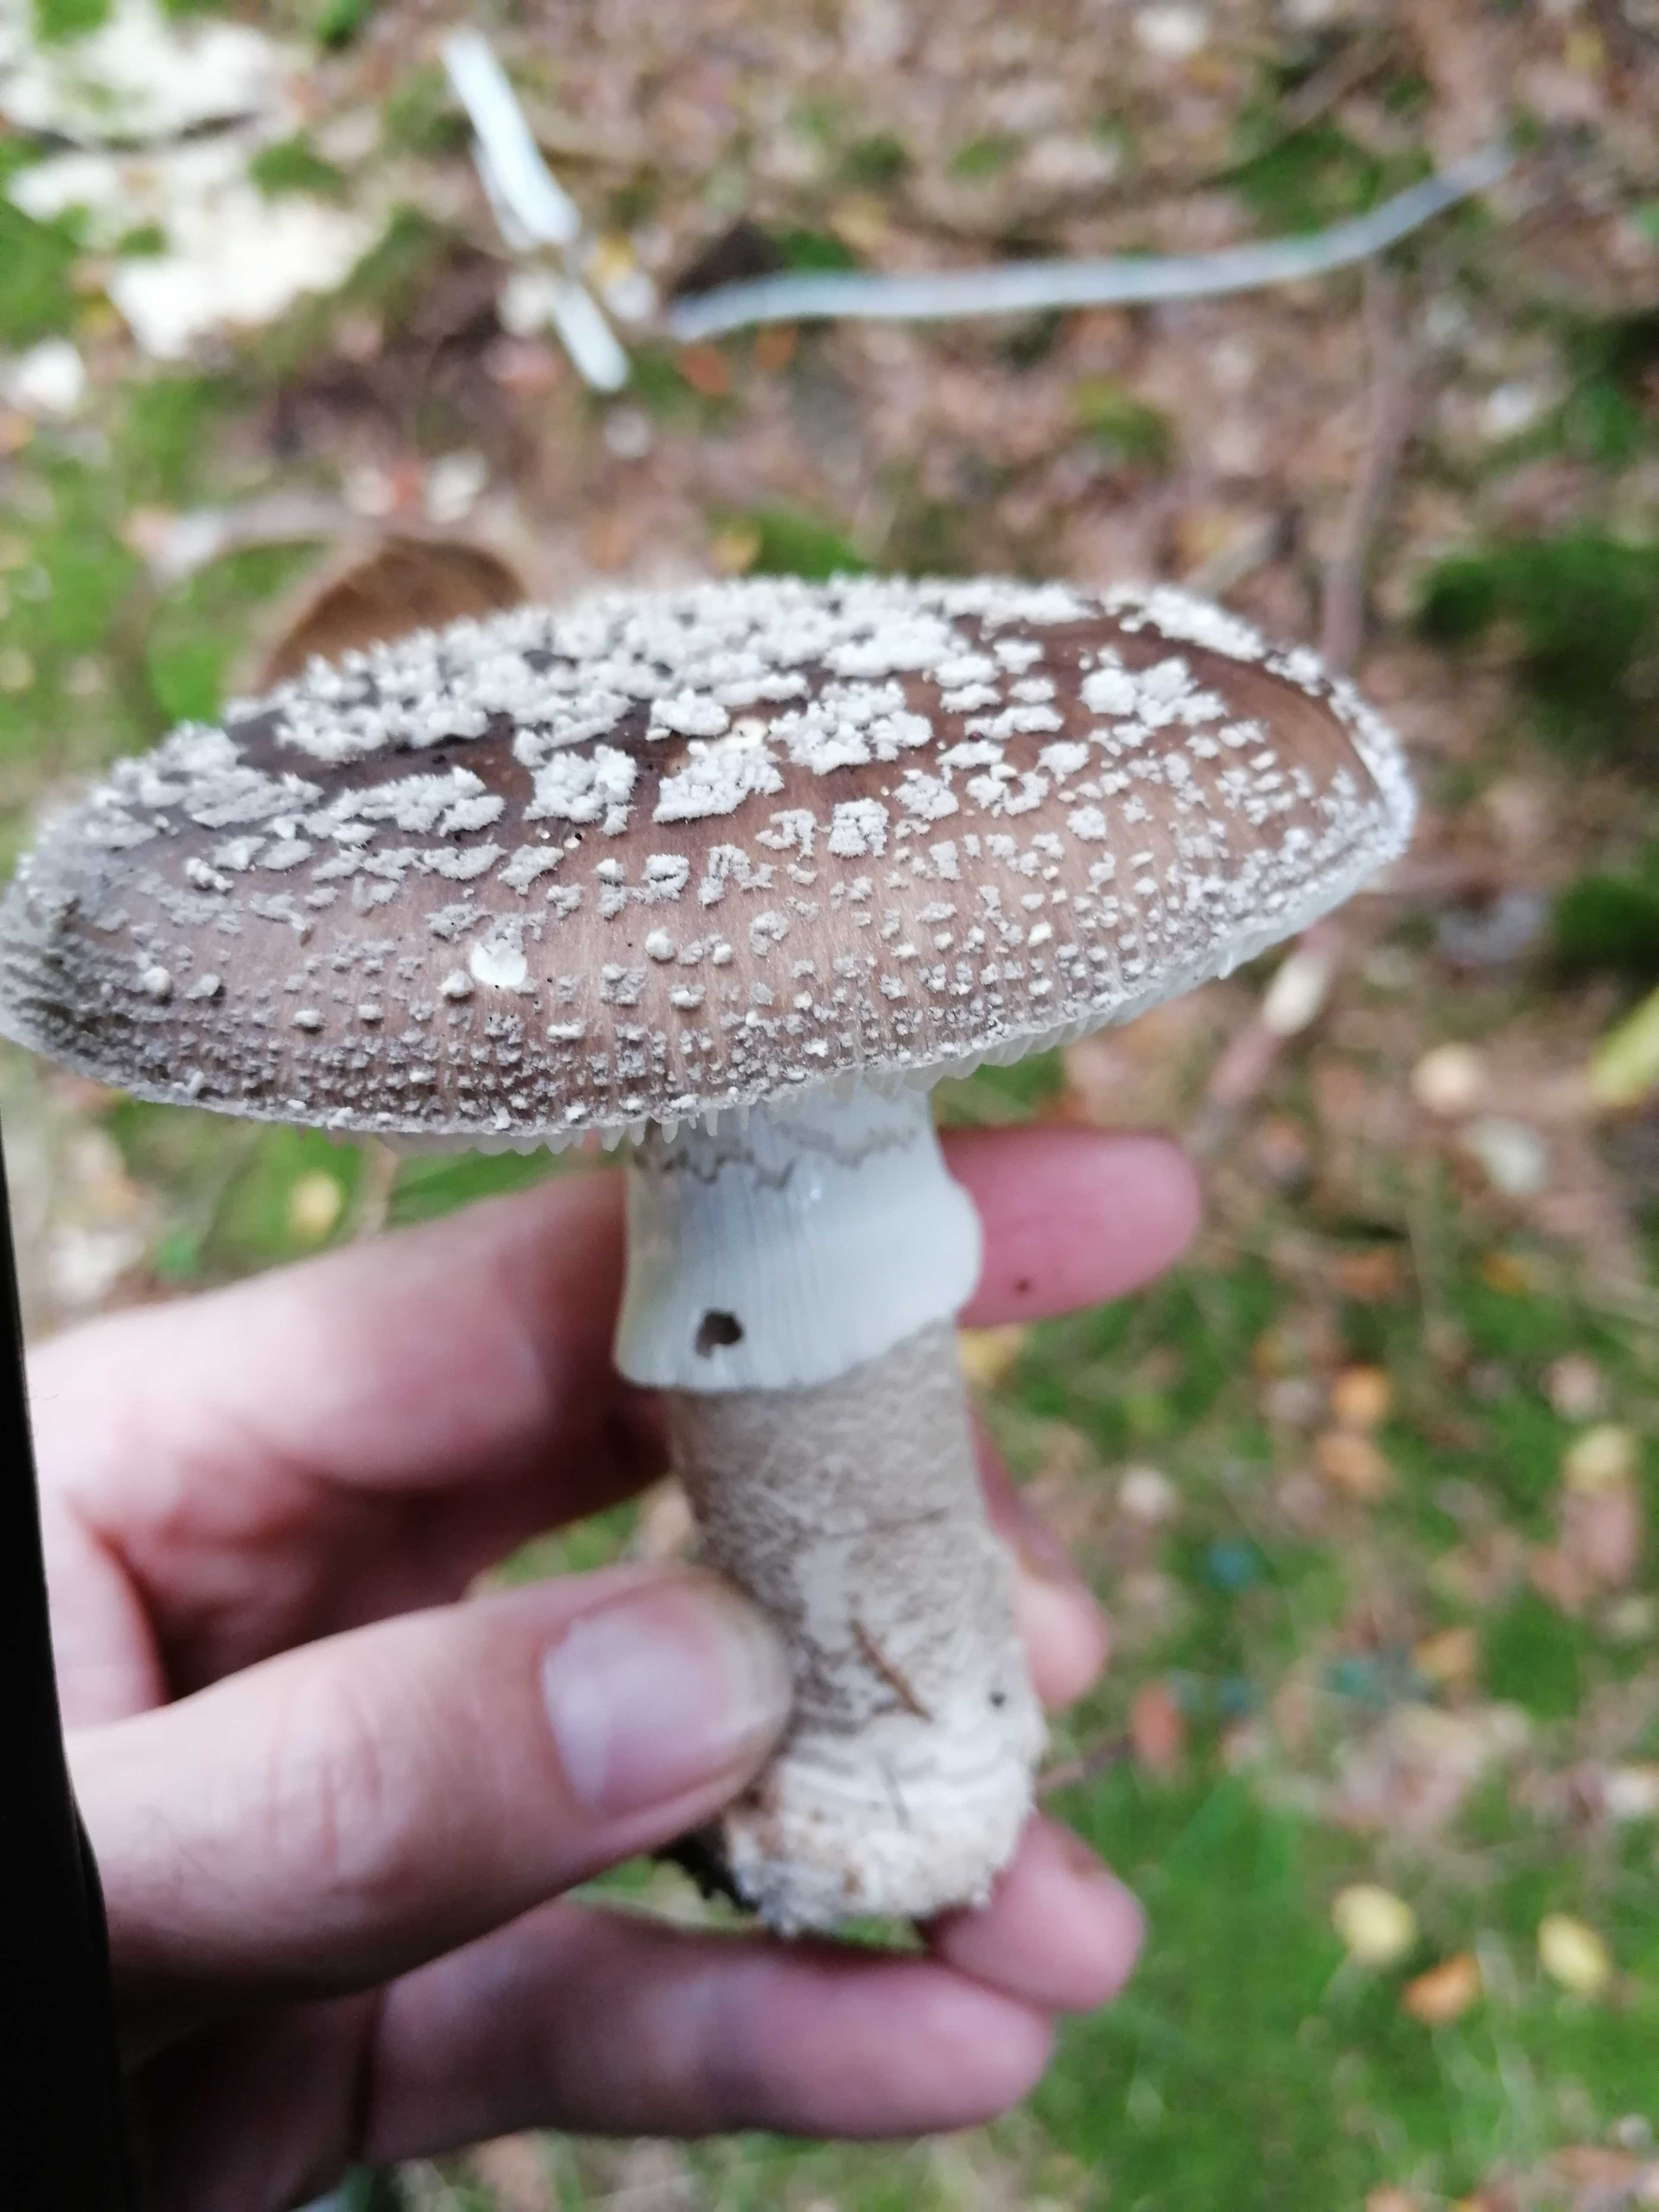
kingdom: Fungi
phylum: Basidiomycota
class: Agaricomycetes
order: Agaricales
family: Amanitaceae
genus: Amanita
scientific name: Amanita
